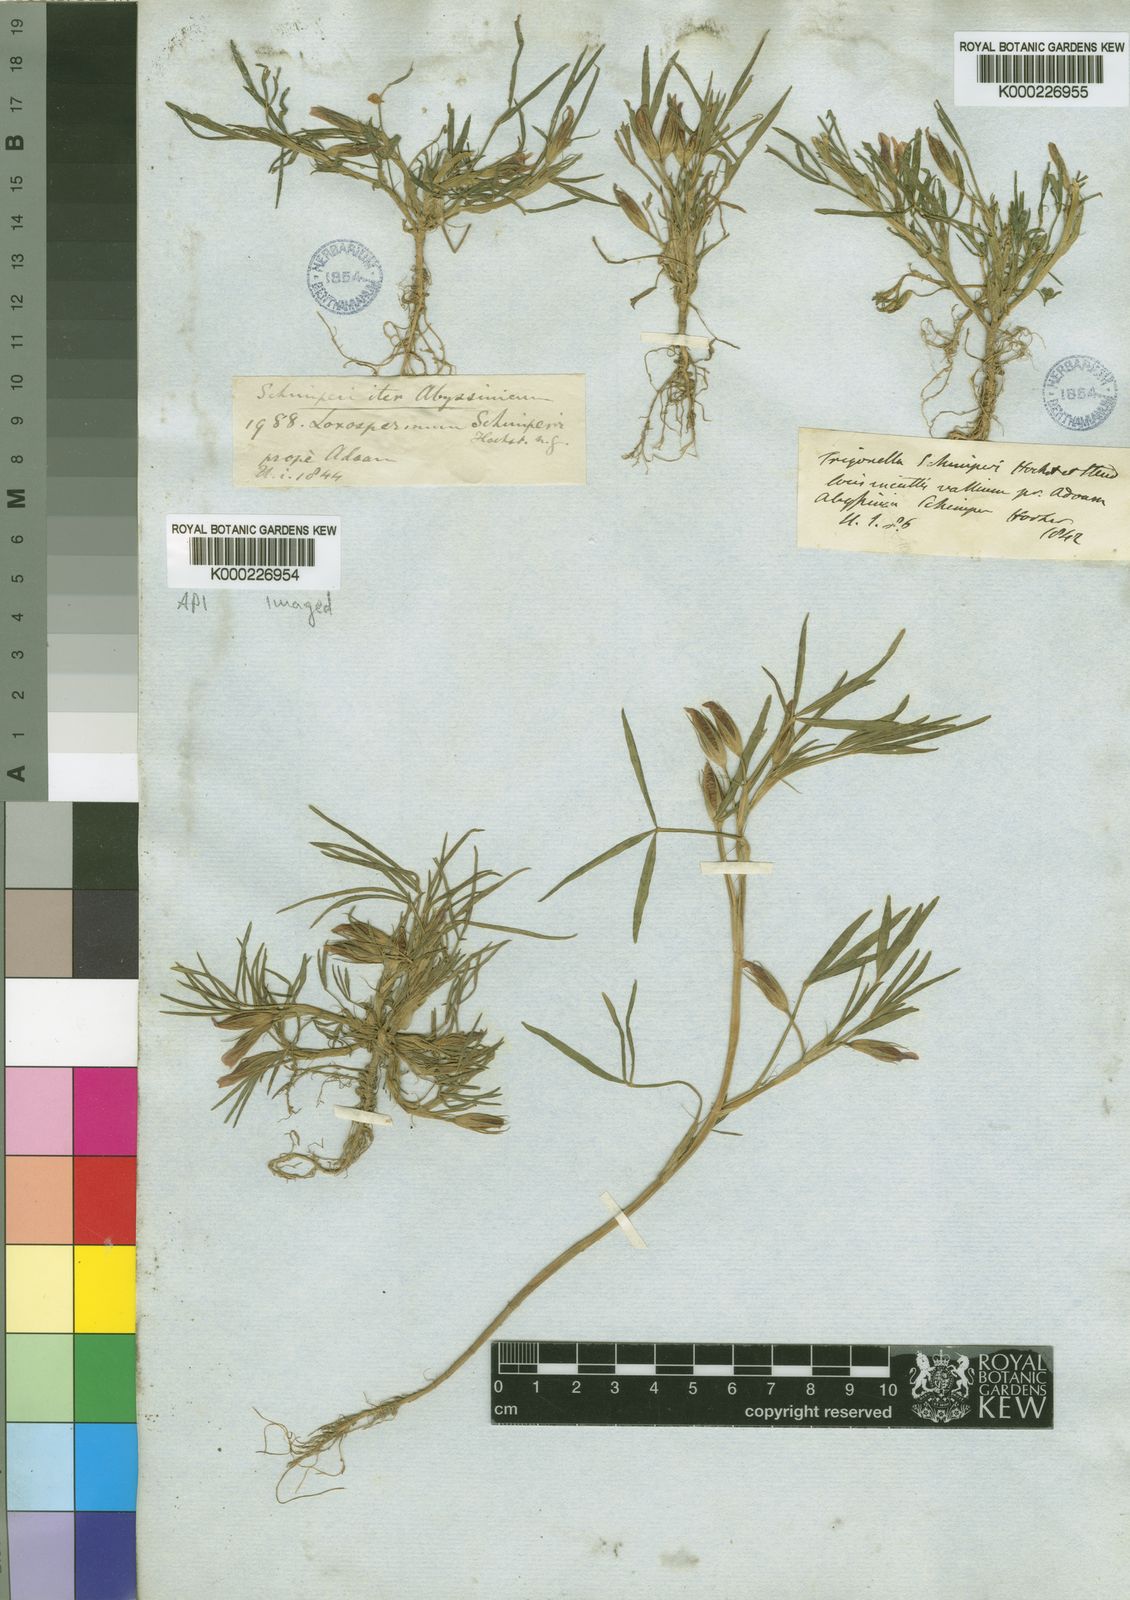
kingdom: Plantae
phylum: Tracheophyta
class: Magnoliopsida
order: Fabales
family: Fabaceae
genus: Trifolium
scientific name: Trifolium schimperi
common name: Schimper's clover
